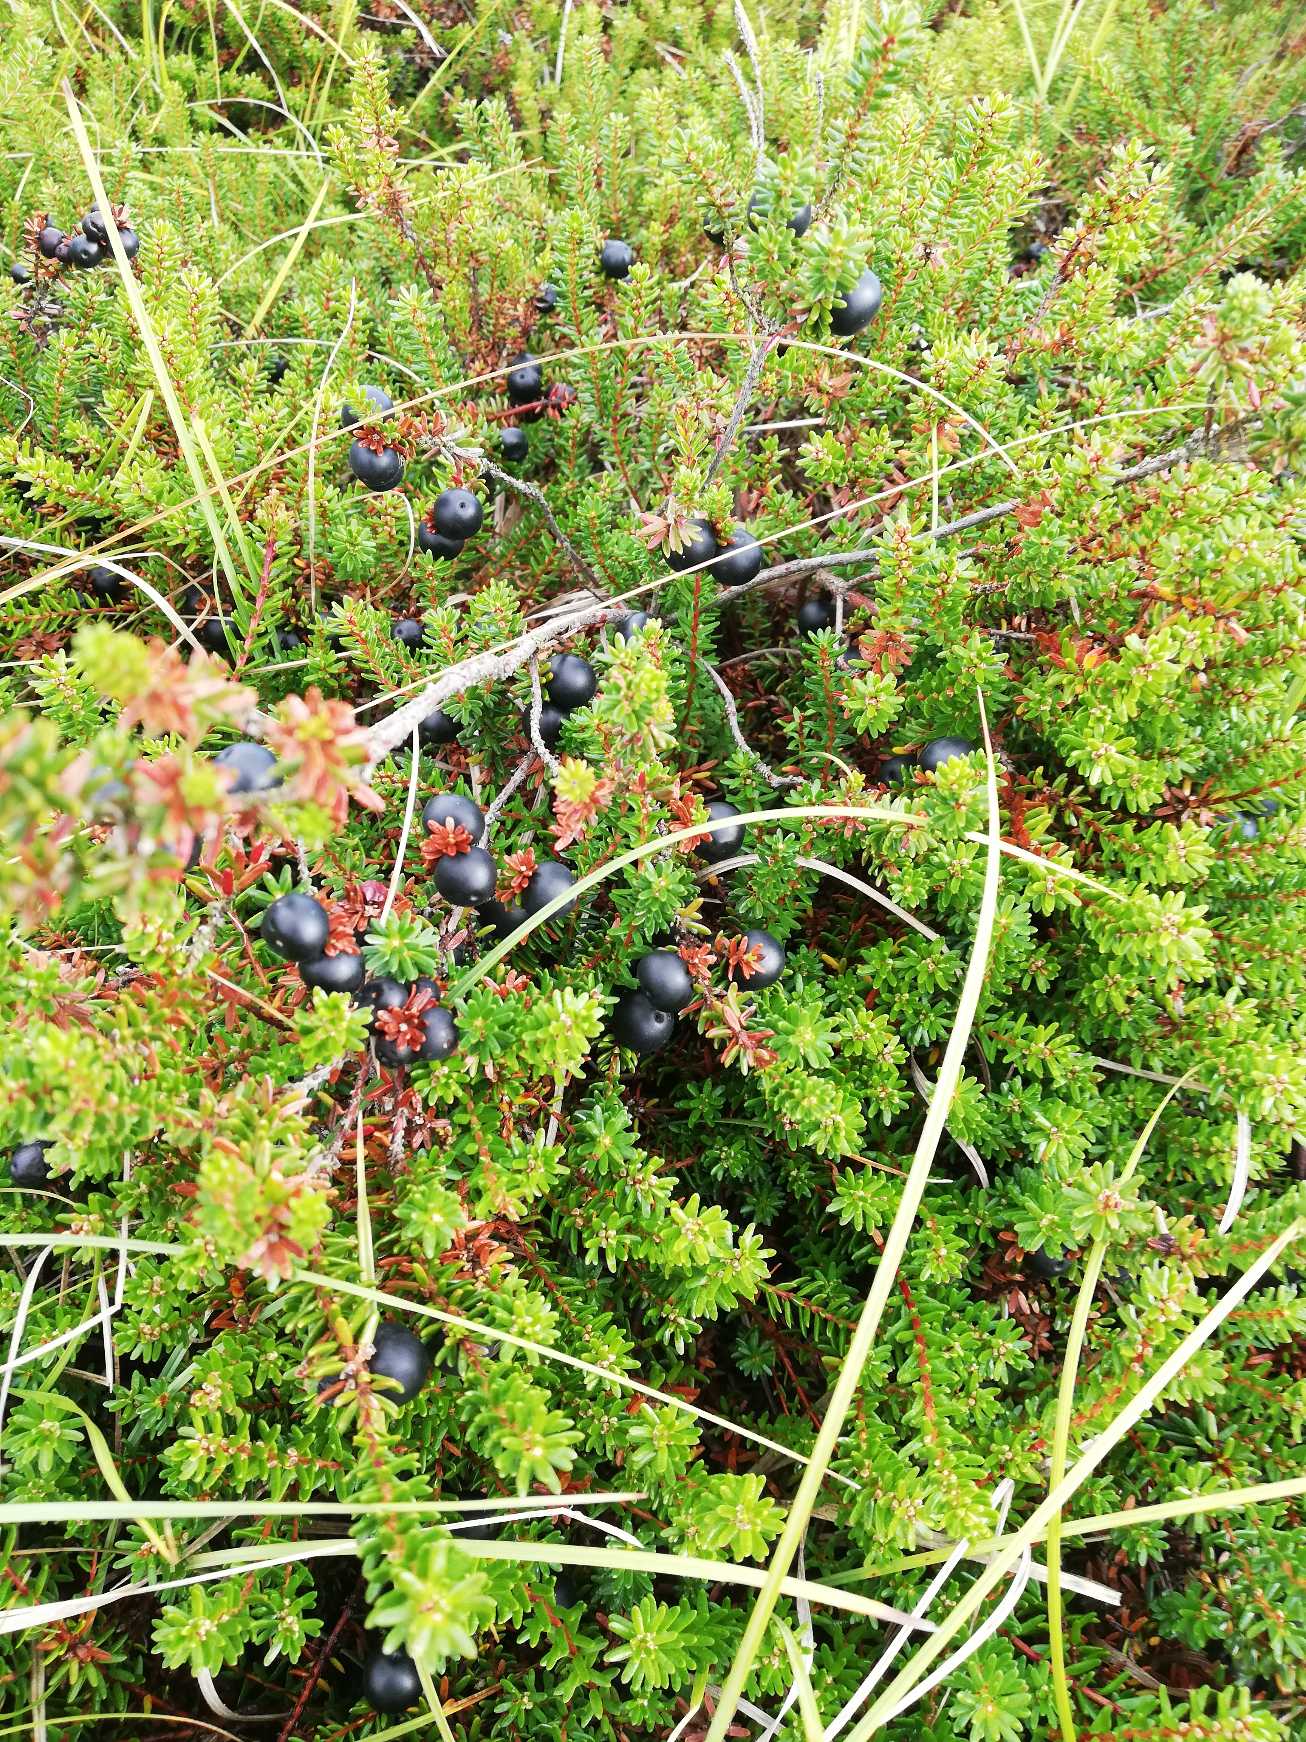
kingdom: Plantae
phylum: Tracheophyta
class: Magnoliopsida
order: Ericales
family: Ericaceae
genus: Empetrum
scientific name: Empetrum nigrum
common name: Revling
